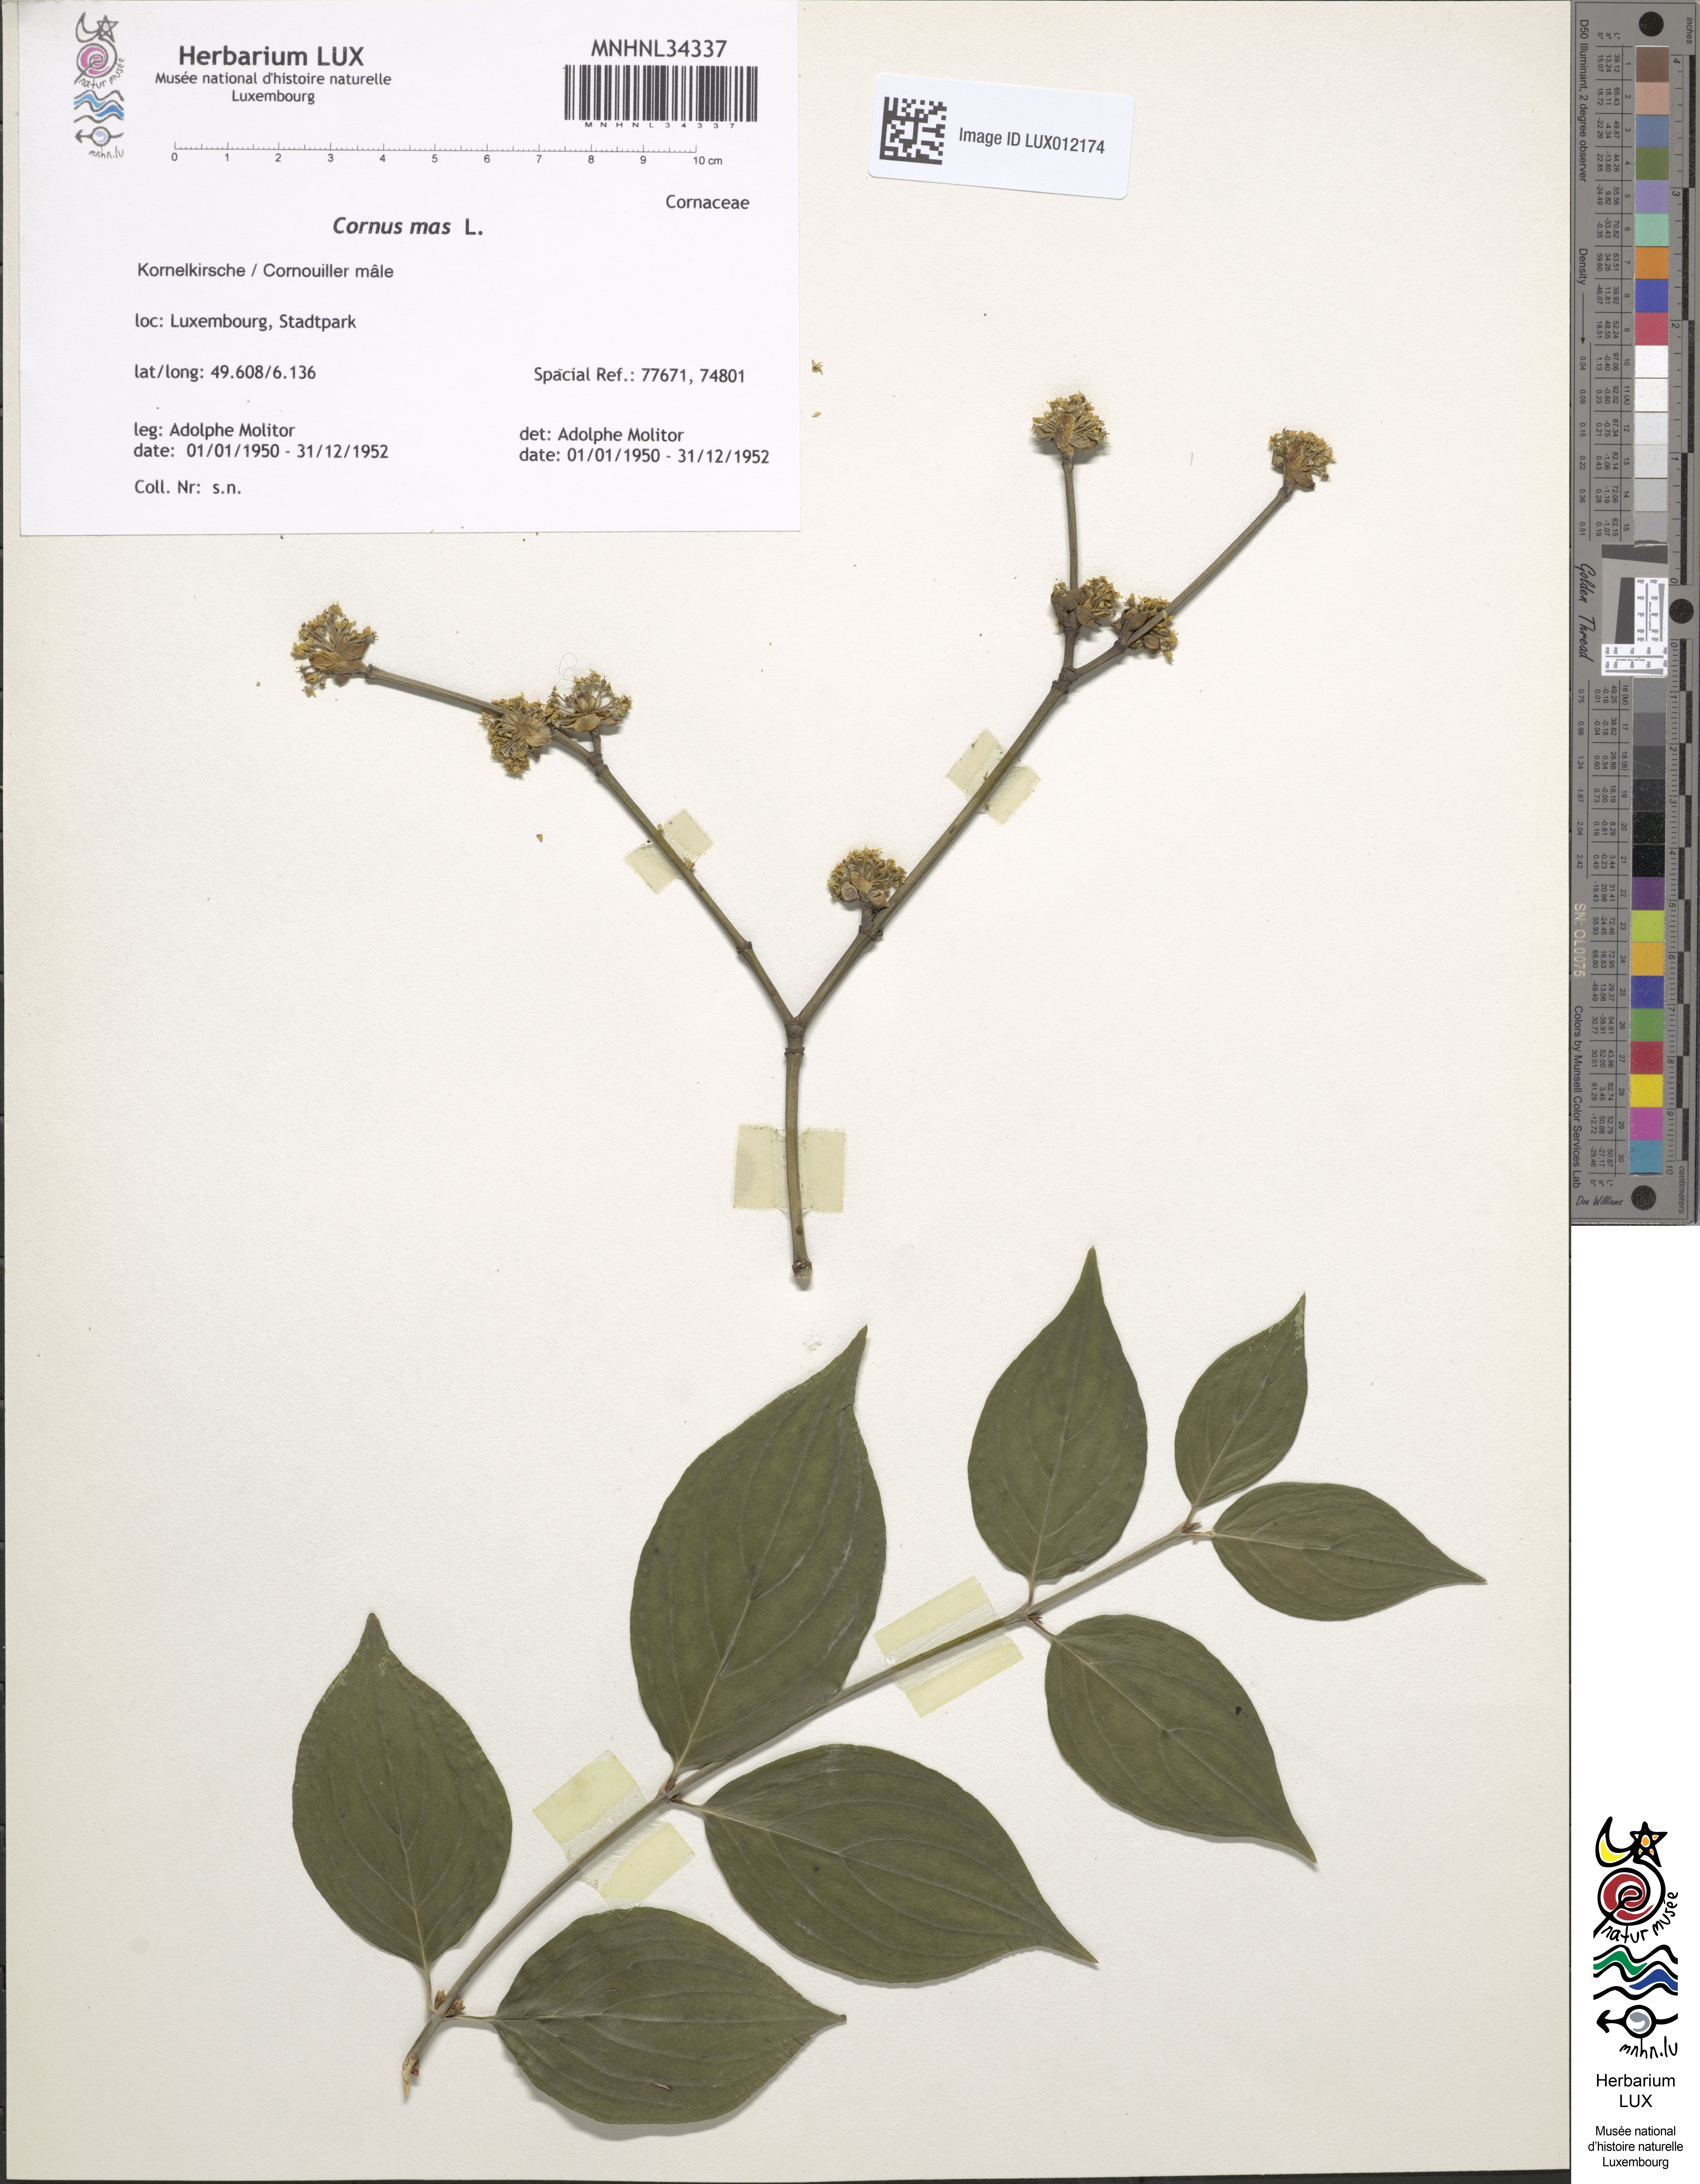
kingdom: Plantae
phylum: Tracheophyta
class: Magnoliopsida
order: Cornales
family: Cornaceae
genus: Cornus
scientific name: Cornus mas
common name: Cornelian-cherry
